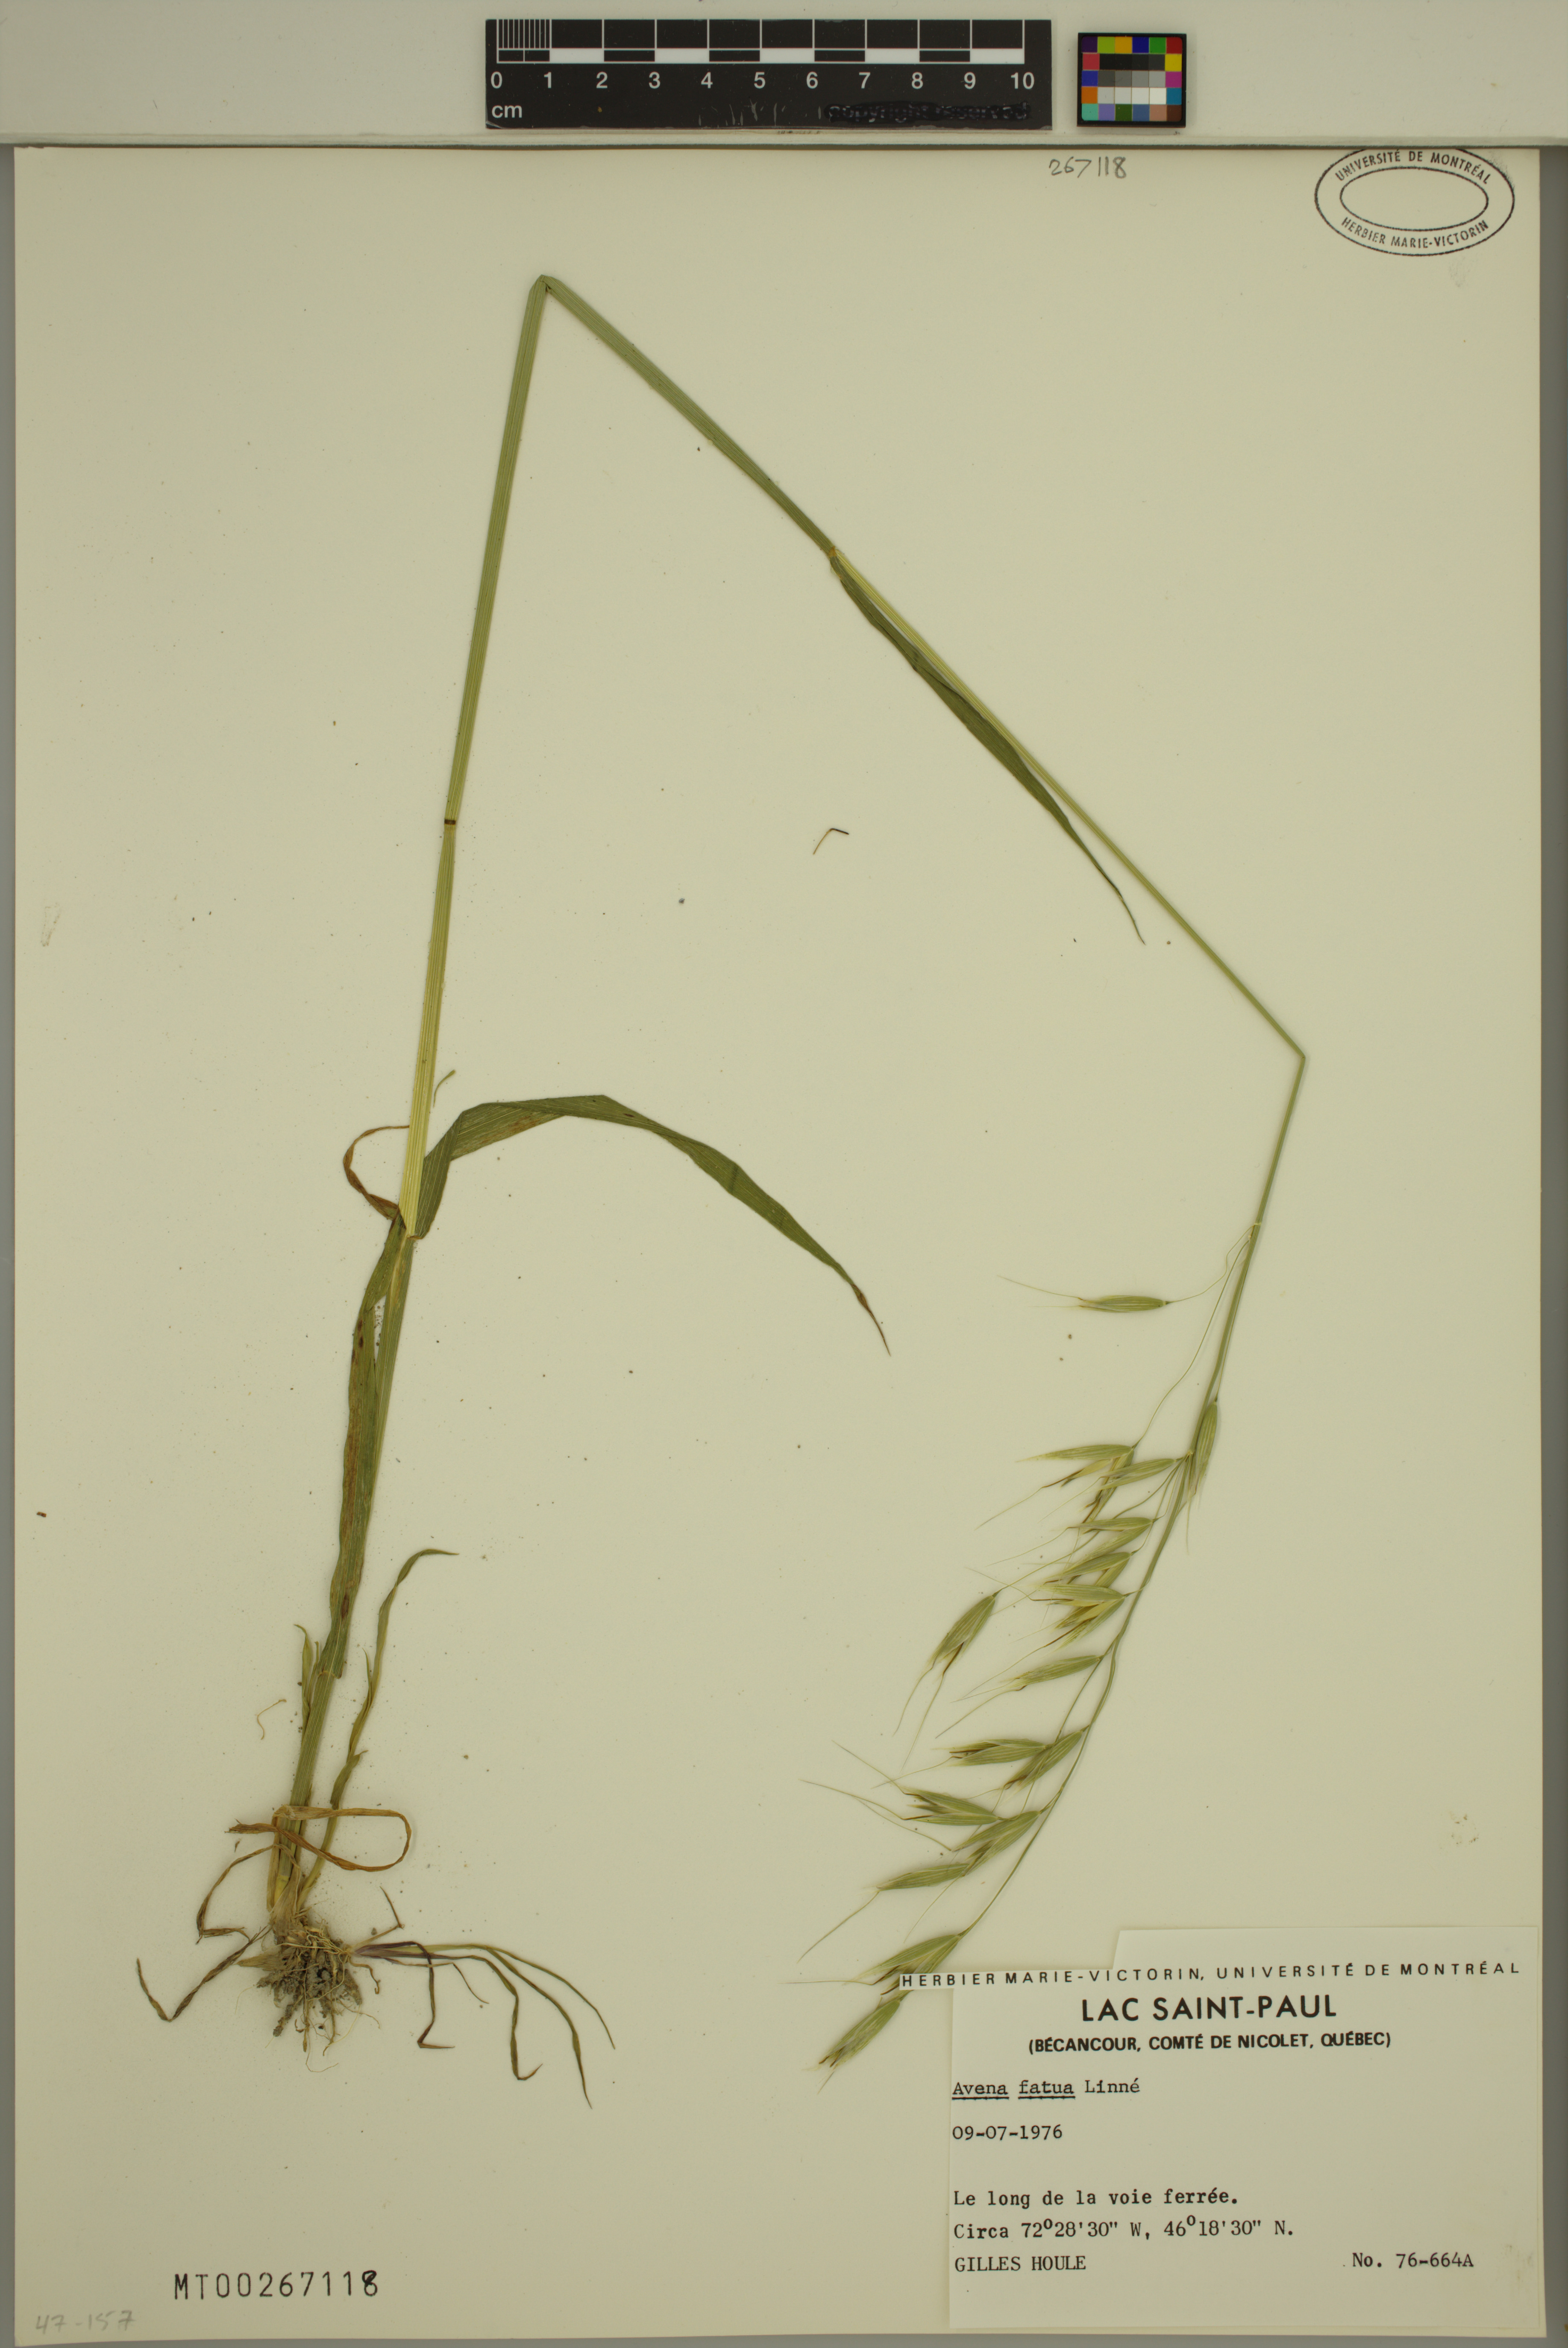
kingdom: Plantae
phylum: Tracheophyta
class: Liliopsida
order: Poales
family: Poaceae
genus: Avena
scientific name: Avena fatua
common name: Wild oat
